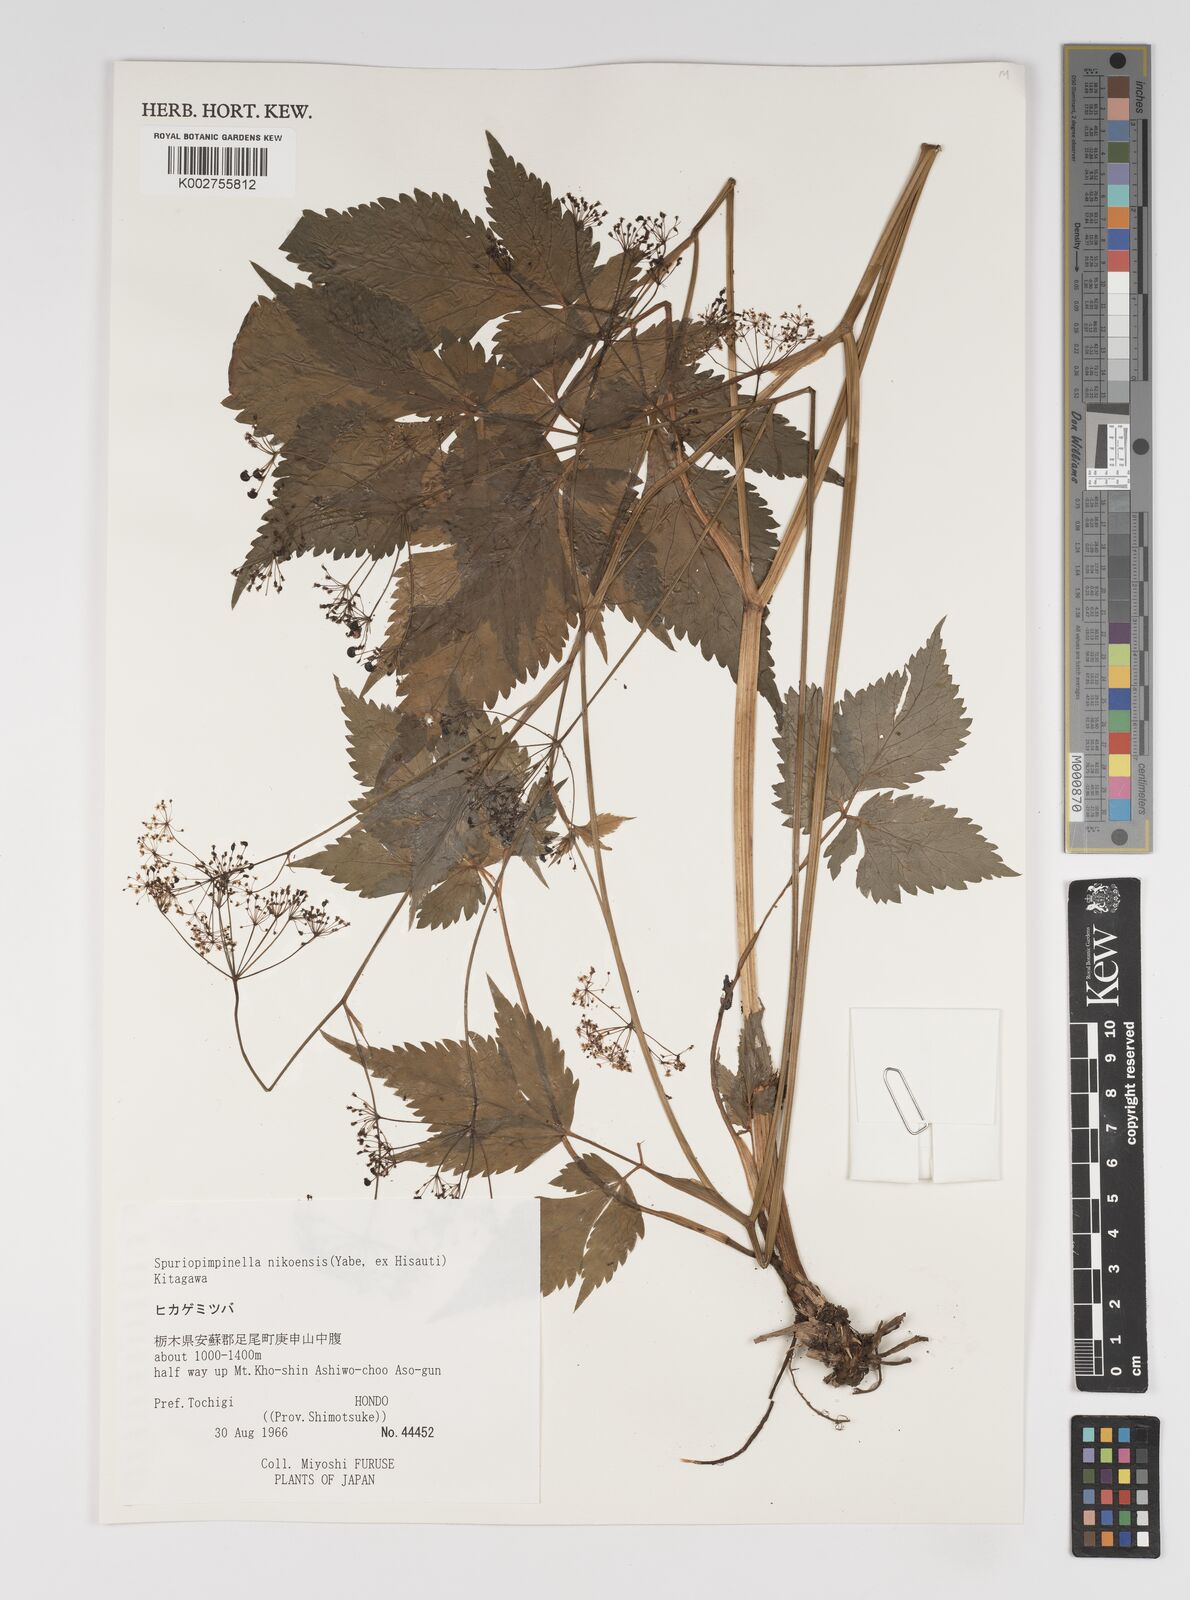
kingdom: Plantae
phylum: Tracheophyta
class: Magnoliopsida
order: Apiales
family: Apiaceae
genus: Spuriopimpinella
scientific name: Spuriopimpinella brachycarpa
